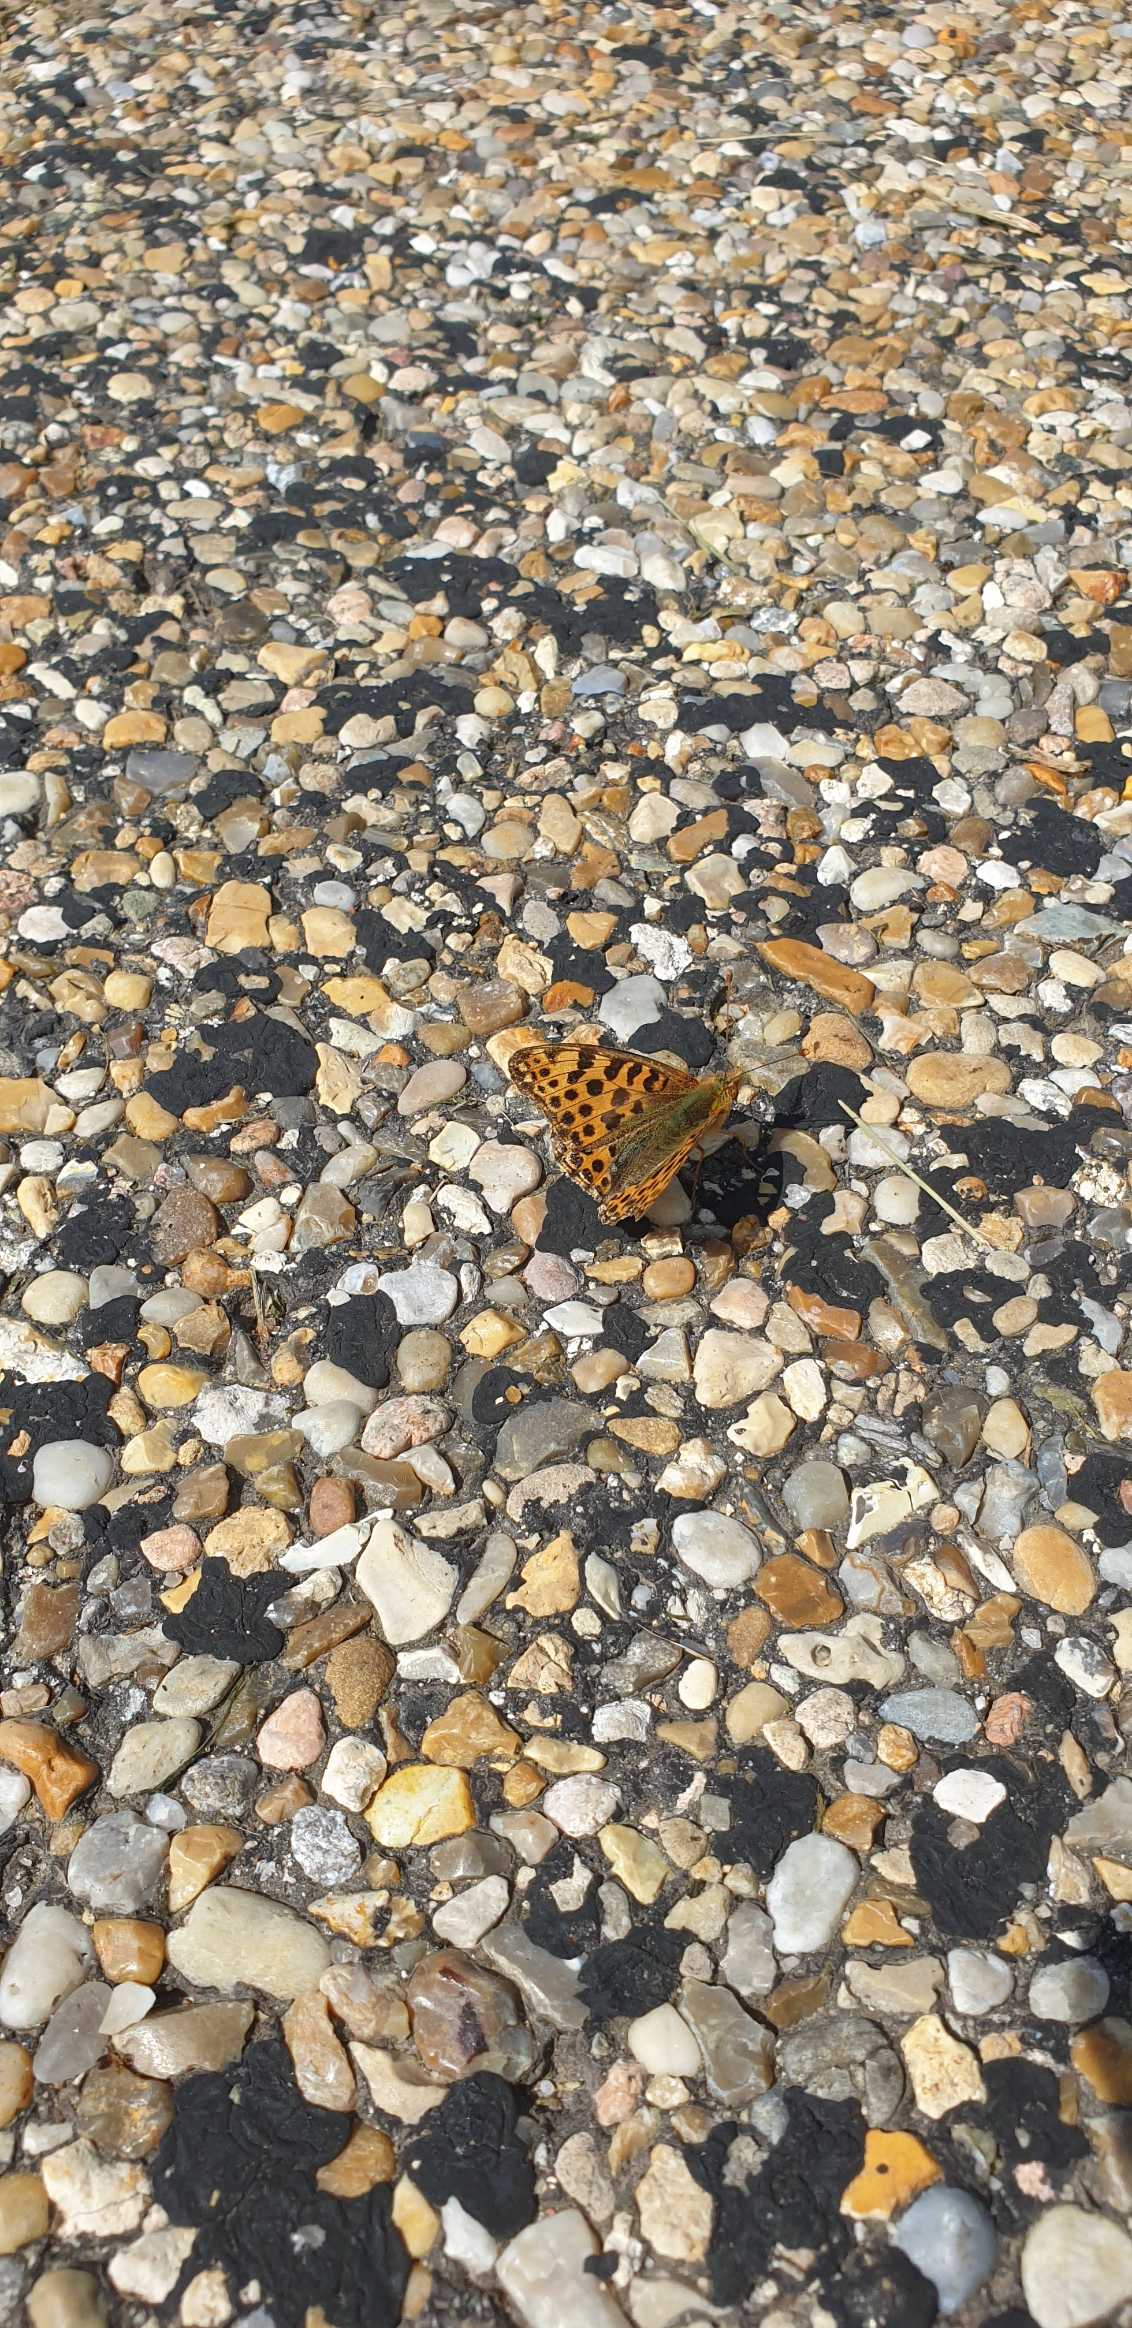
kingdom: Animalia
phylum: Arthropoda
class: Insecta
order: Lepidoptera
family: Nymphalidae
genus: Issoria
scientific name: Issoria lathonia
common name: Storplettet perlemorsommerfugl
